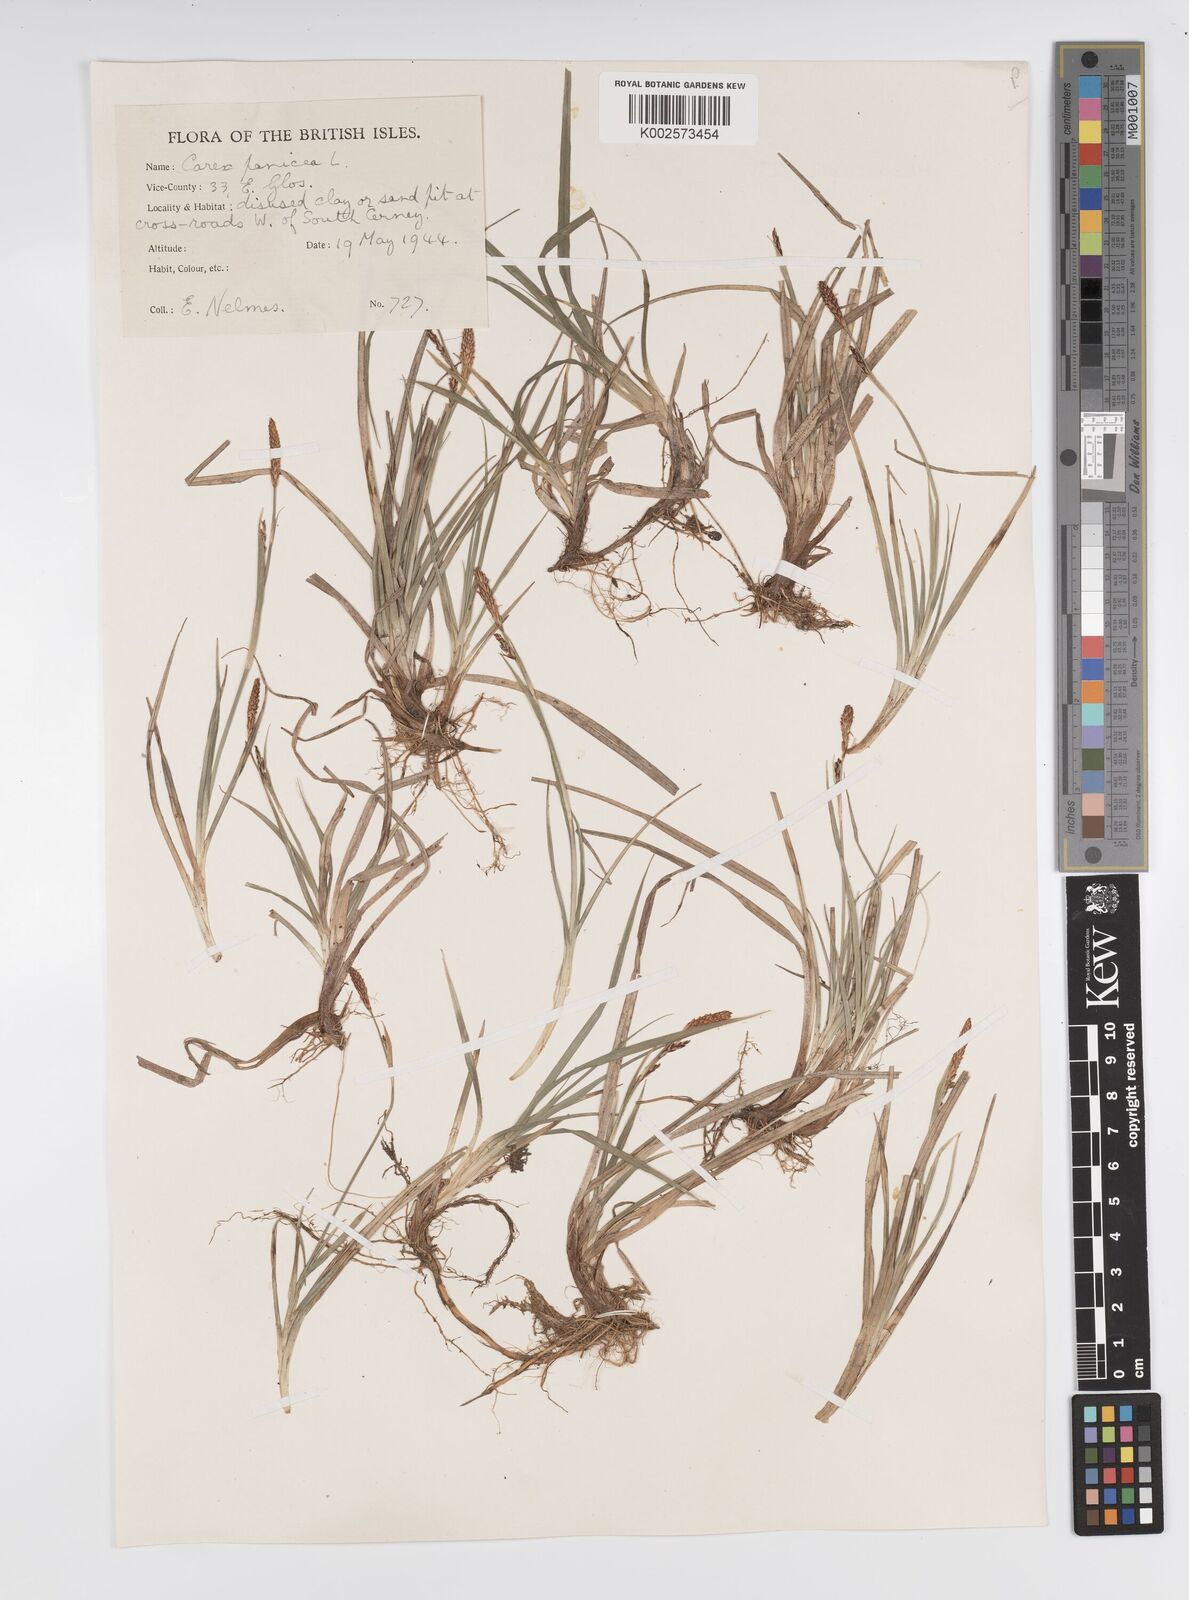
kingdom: Plantae
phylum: Tracheophyta
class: Liliopsida
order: Poales
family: Cyperaceae
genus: Carex
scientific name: Carex panicea
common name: Carnation sedge
